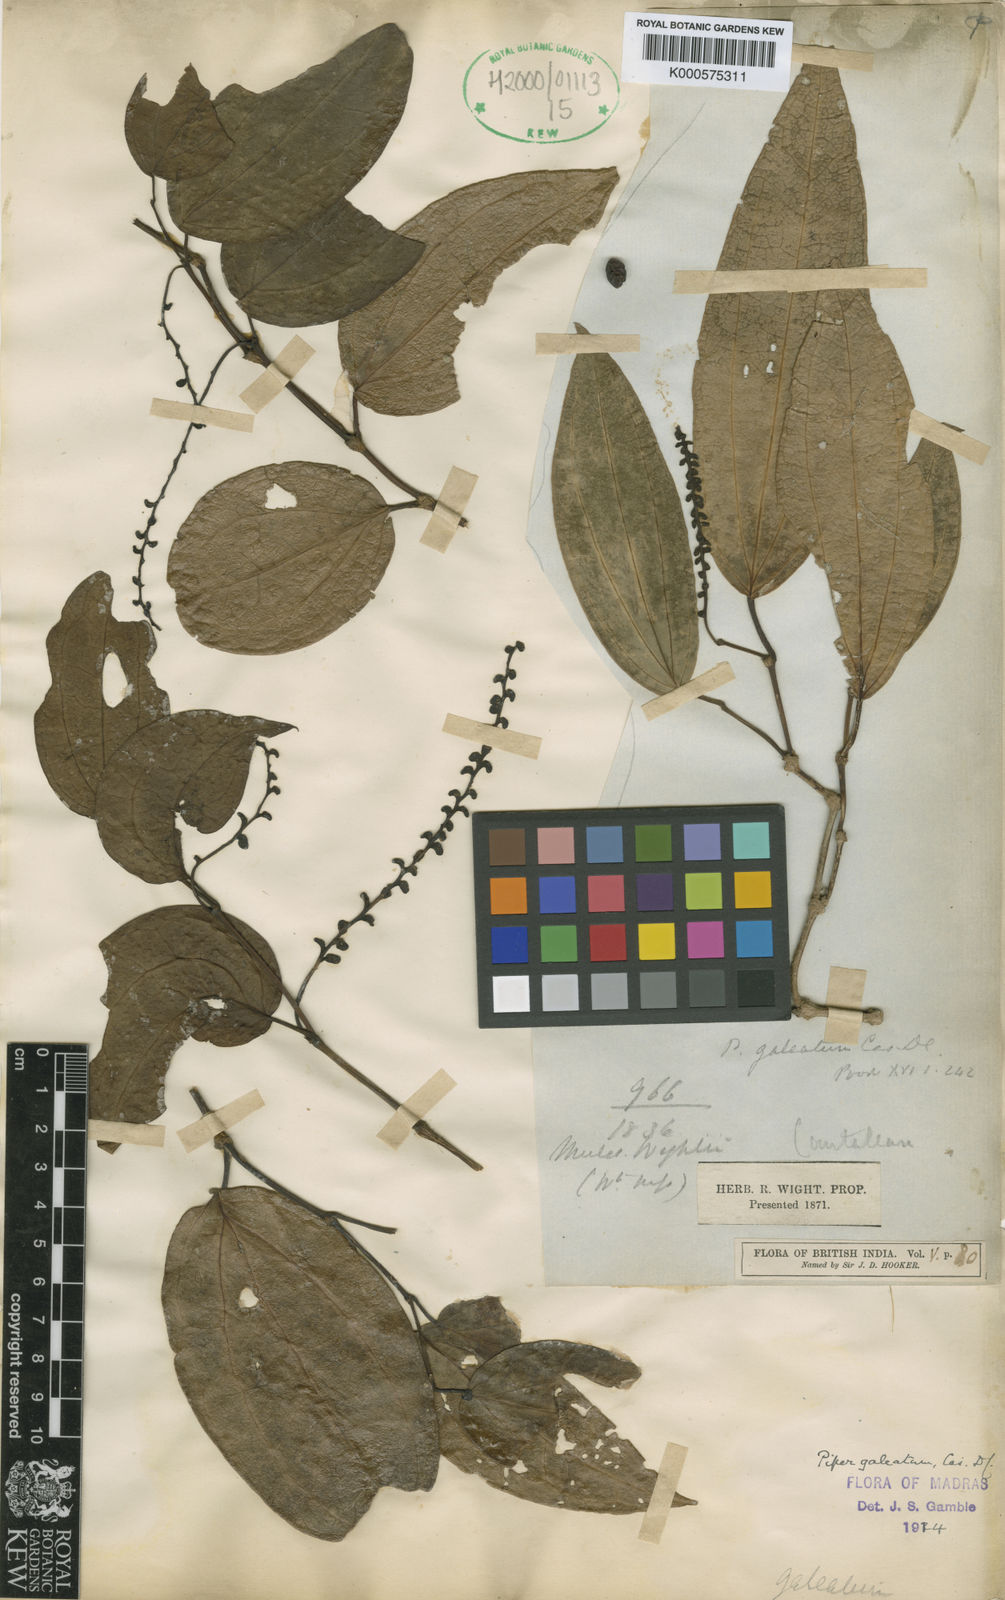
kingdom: Plantae
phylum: Tracheophyta
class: Magnoliopsida
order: Piperales
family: Piperaceae
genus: Piper
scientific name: Piper galeatum
